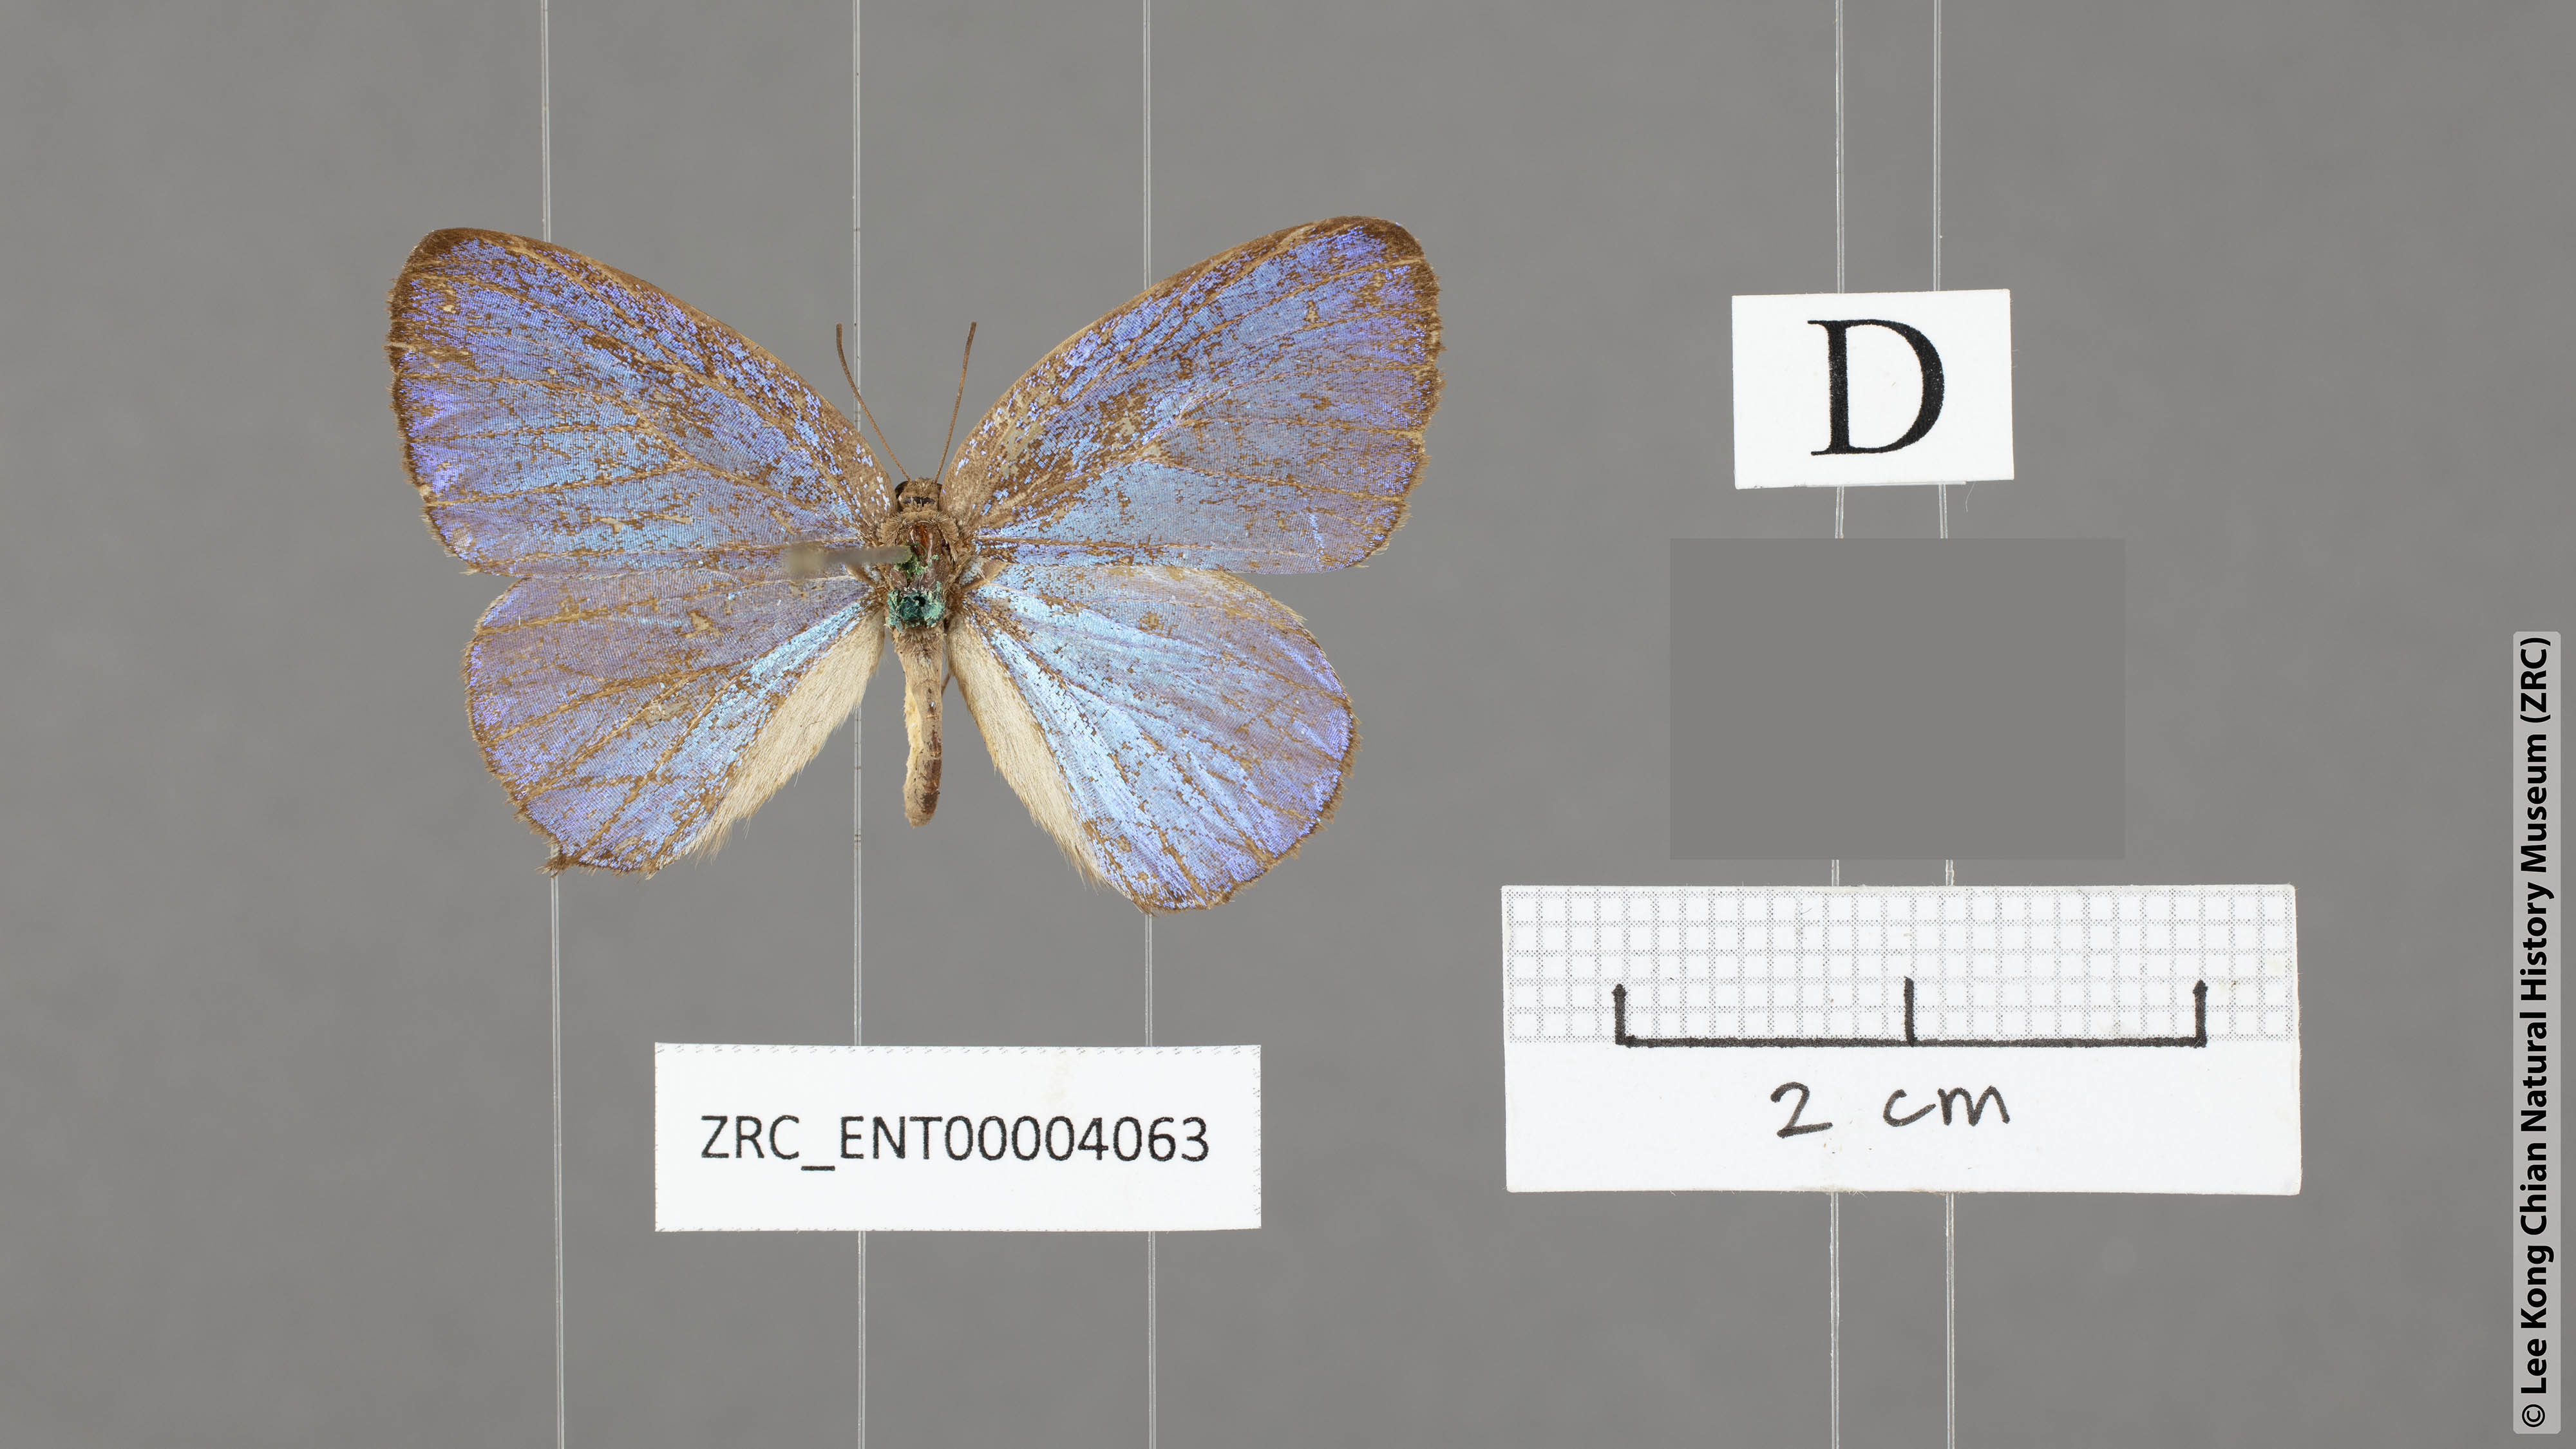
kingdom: Animalia
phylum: Arthropoda
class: Insecta
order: Lepidoptera
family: Lycaenidae
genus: Arhopala
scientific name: Arhopala varro
